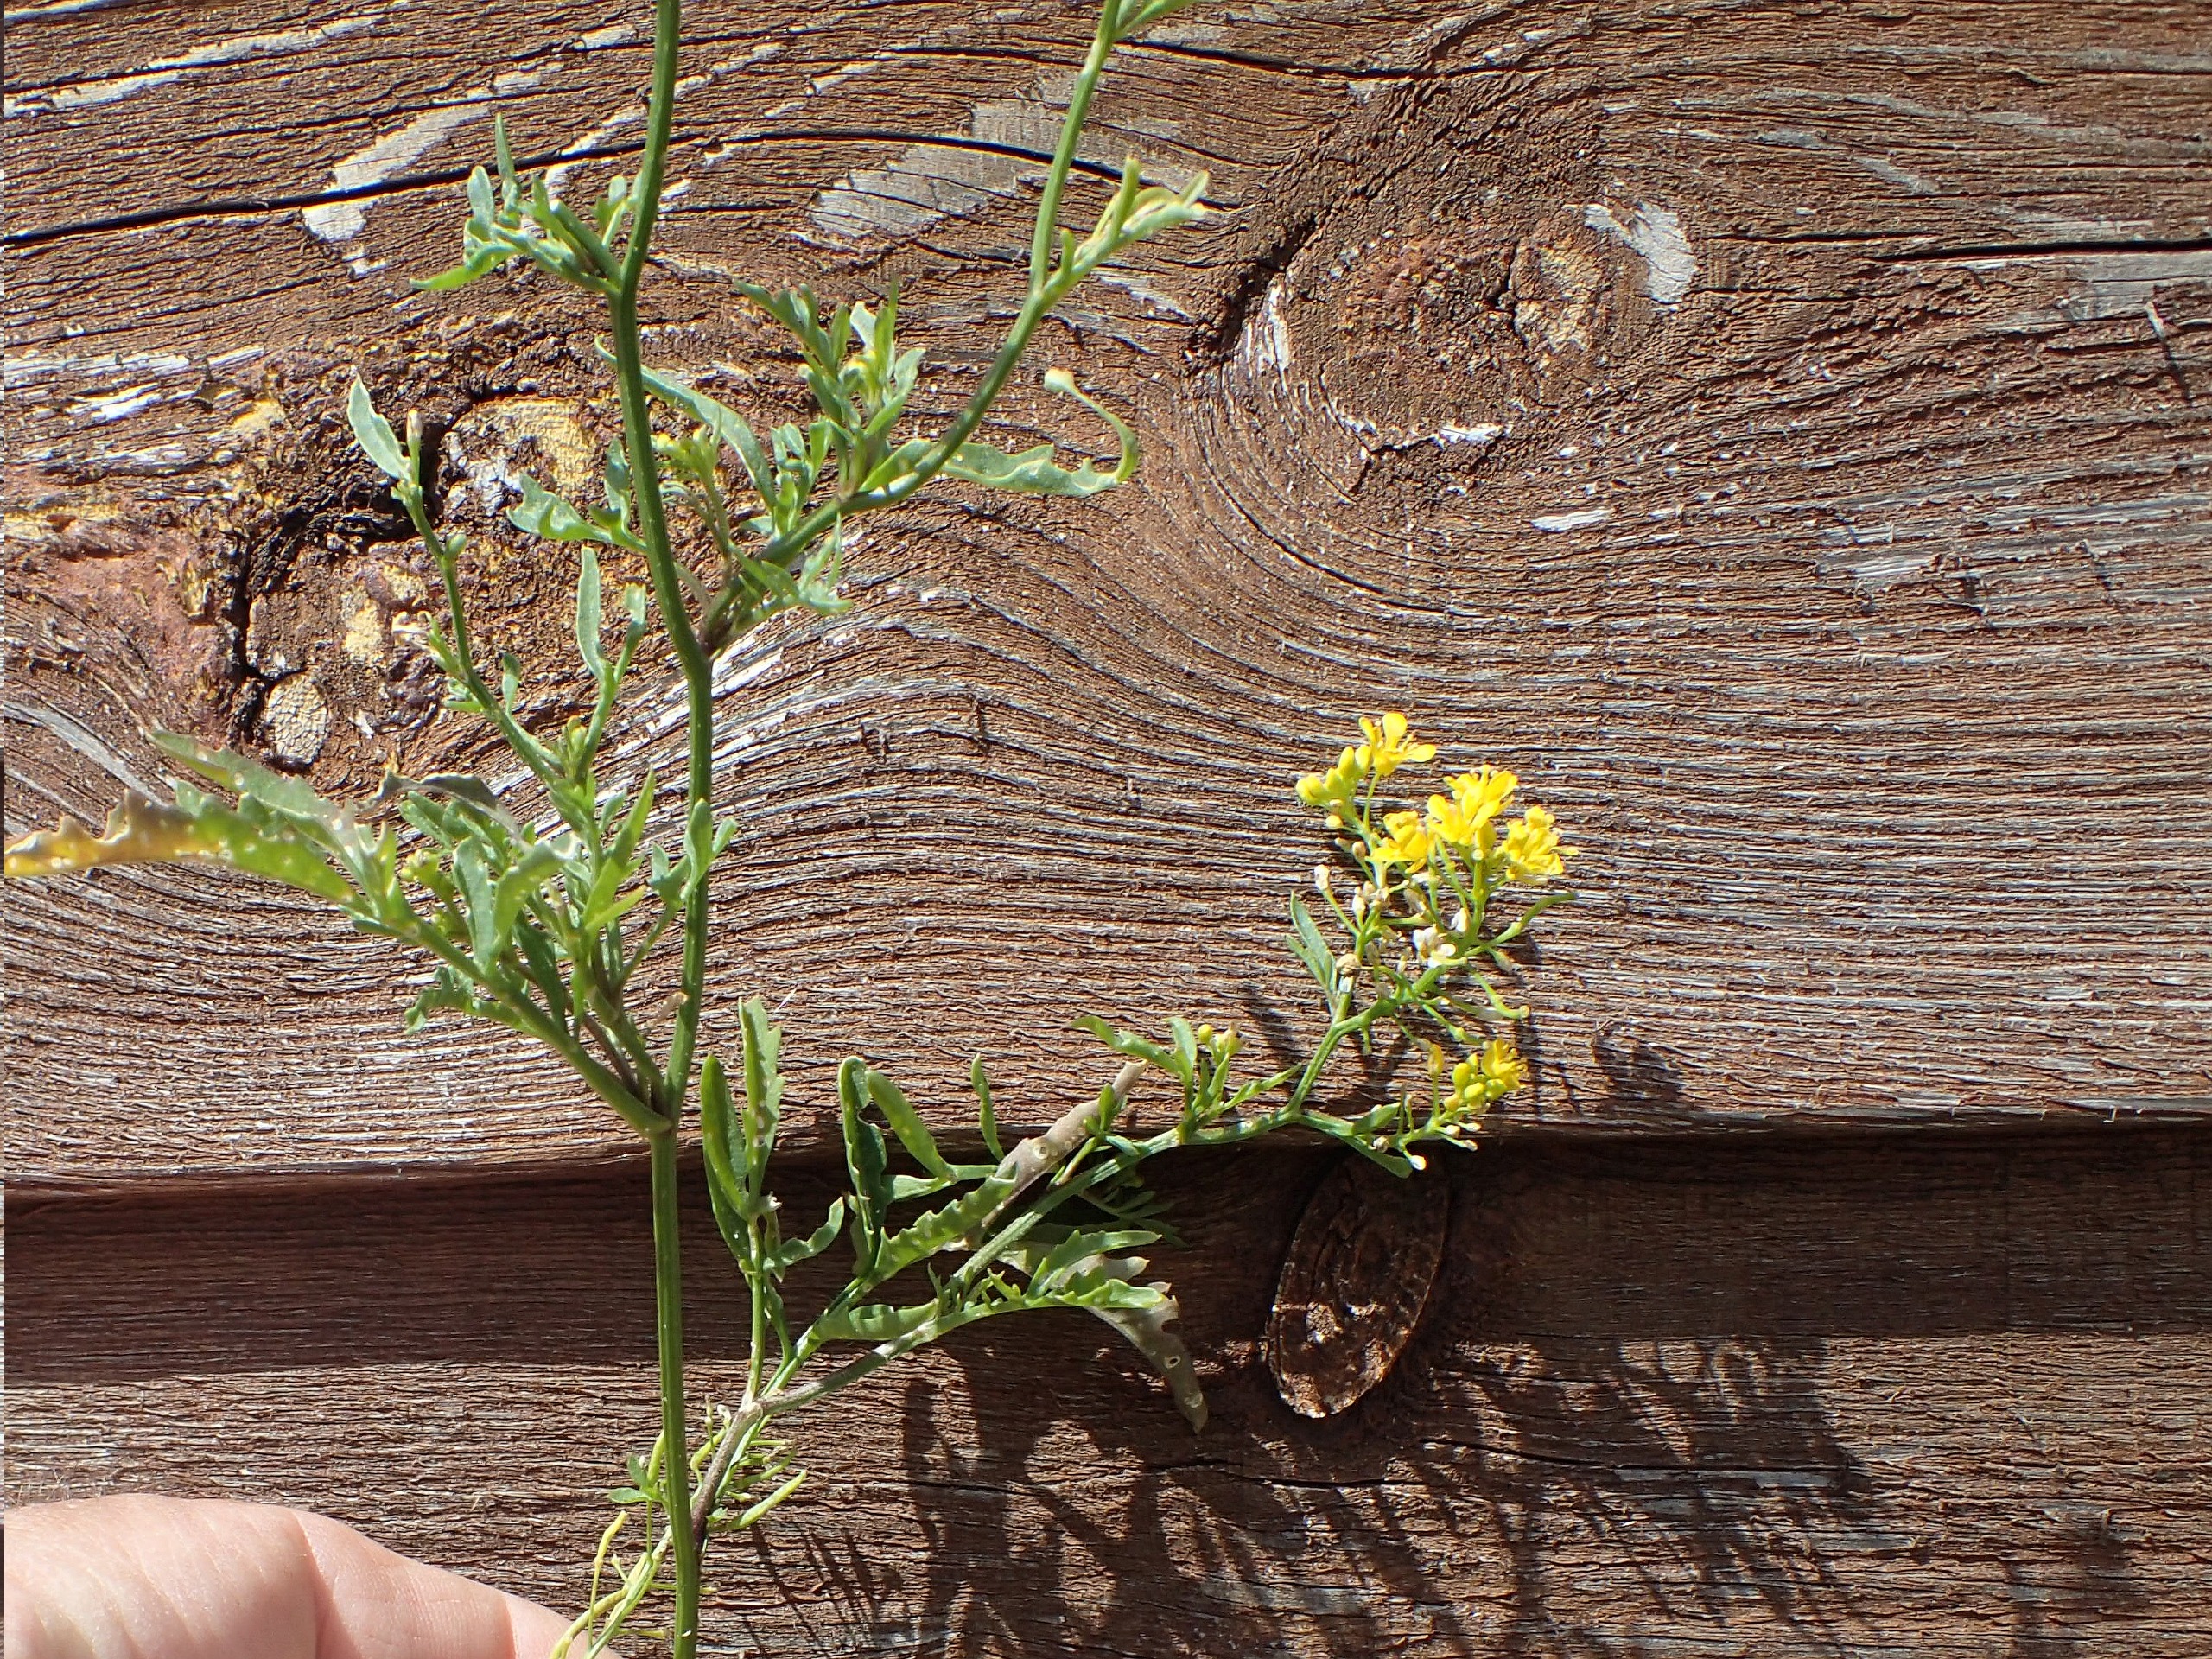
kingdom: Plantae
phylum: Tracheophyta
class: Magnoliopsida
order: Brassicales
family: Brassicaceae
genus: Rorippa
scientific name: Rorippa sylvestris
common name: Vej-guldkarse
